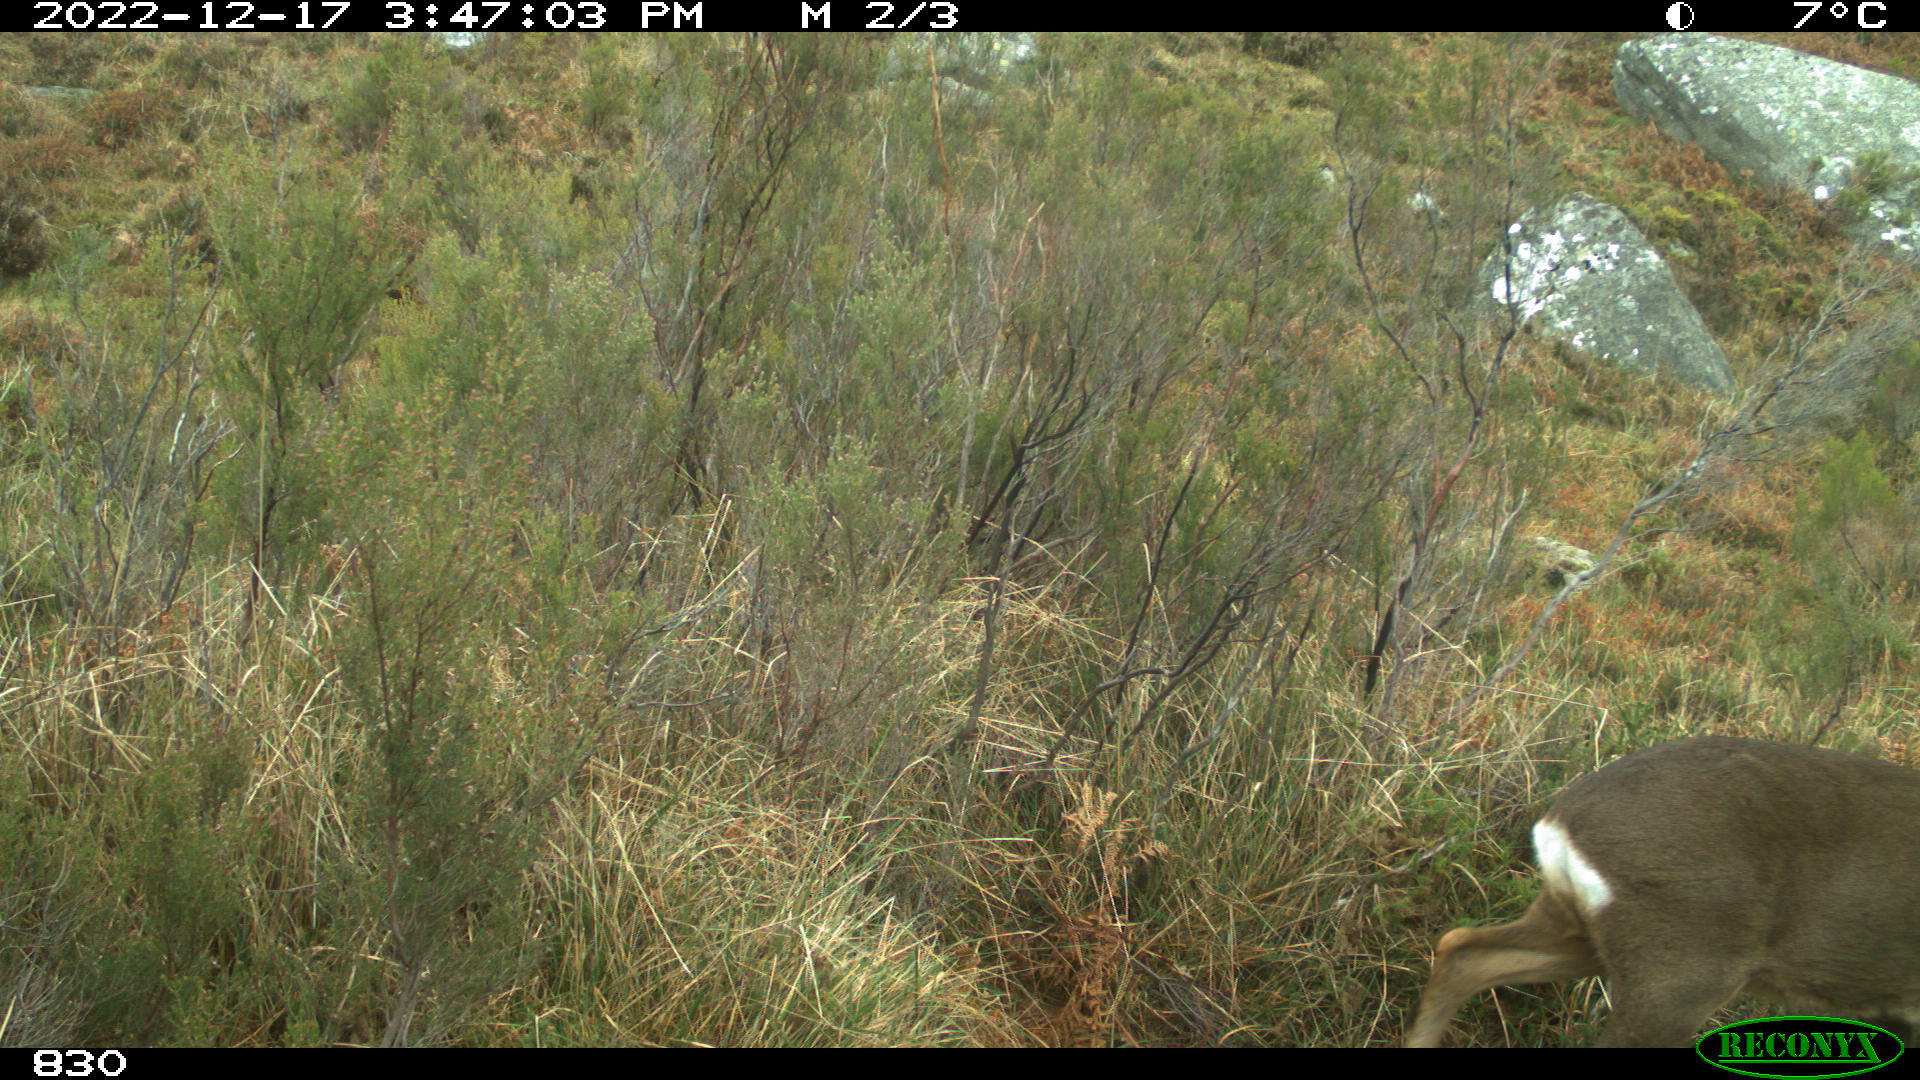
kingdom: Animalia
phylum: Chordata
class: Mammalia
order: Artiodactyla
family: Cervidae
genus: Capreolus
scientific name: Capreolus capreolus
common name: Western roe deer
